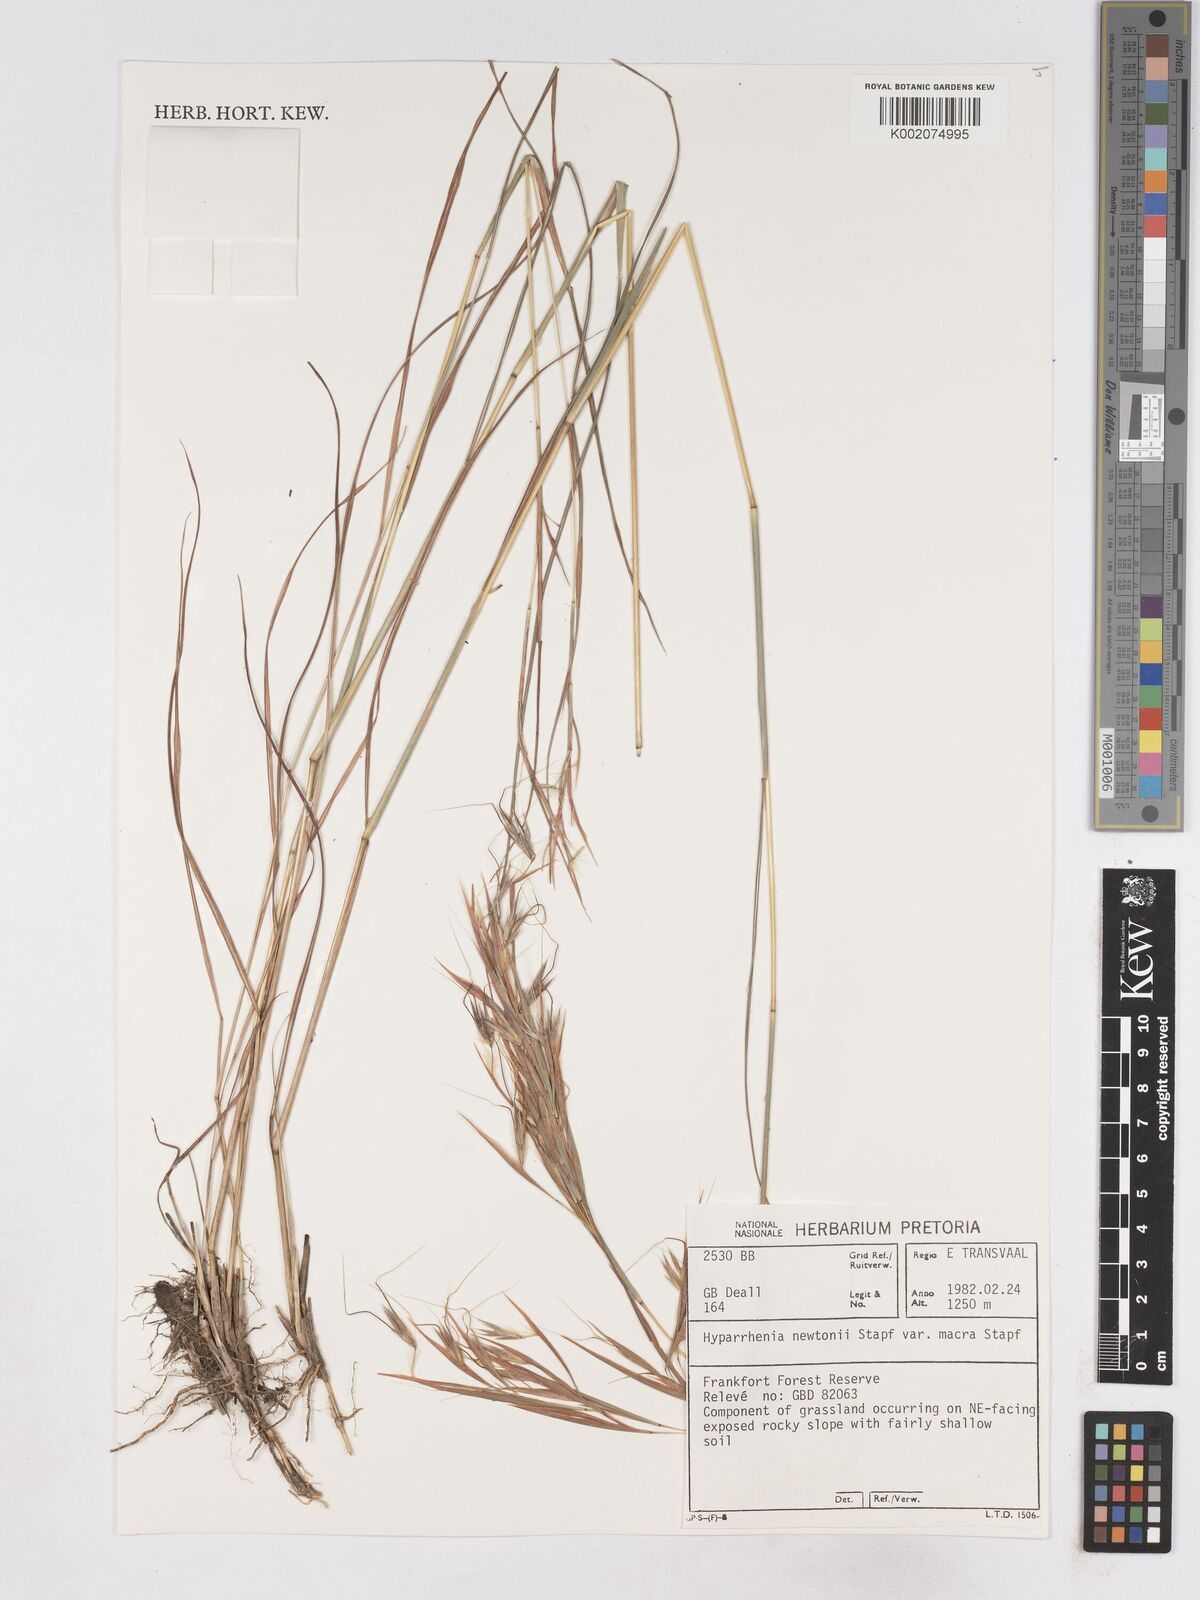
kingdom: Plantae
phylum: Tracheophyta
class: Liliopsida
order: Poales
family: Poaceae
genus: Hyparrhenia
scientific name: Hyparrhenia
